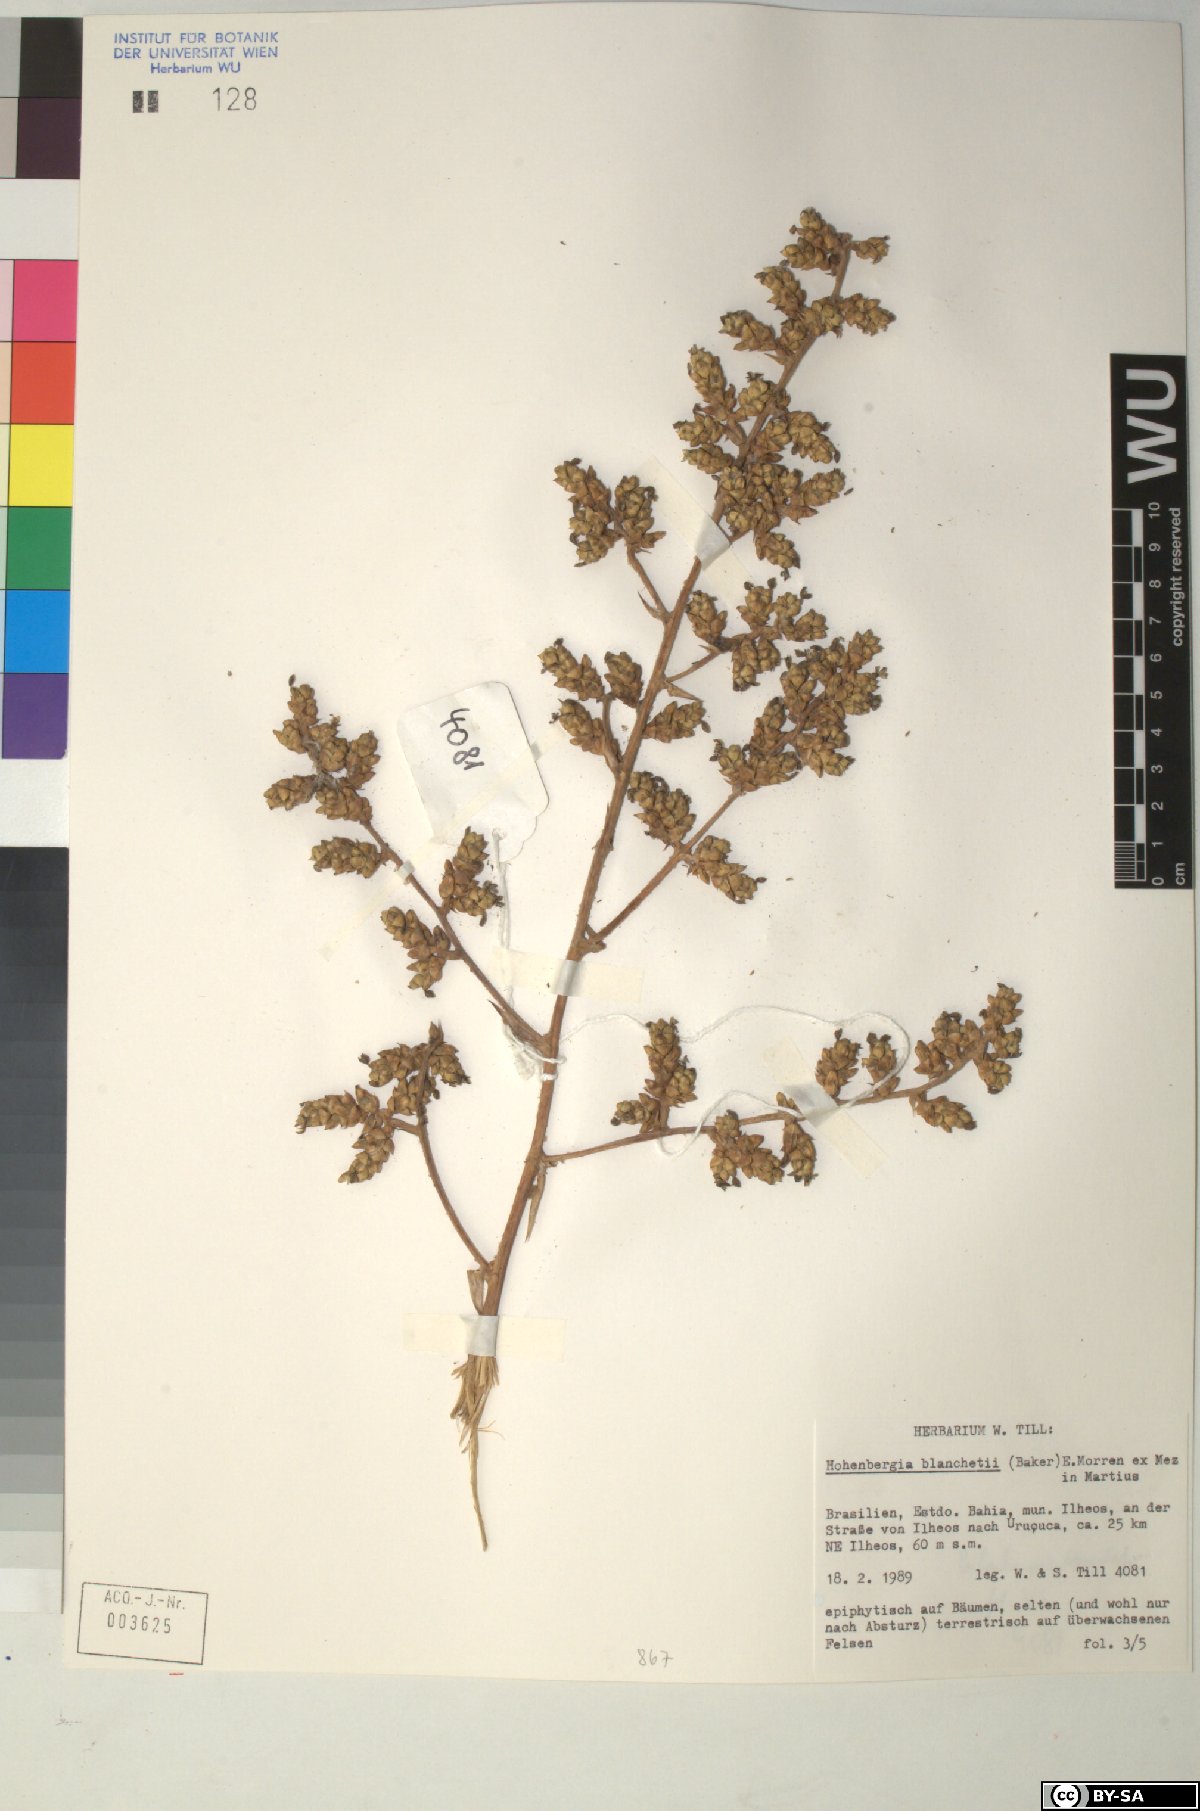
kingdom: Plantae
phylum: Tracheophyta
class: Liliopsida
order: Poales
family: Bromeliaceae
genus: Hohenbergia
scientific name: Hohenbergia blanchetii
